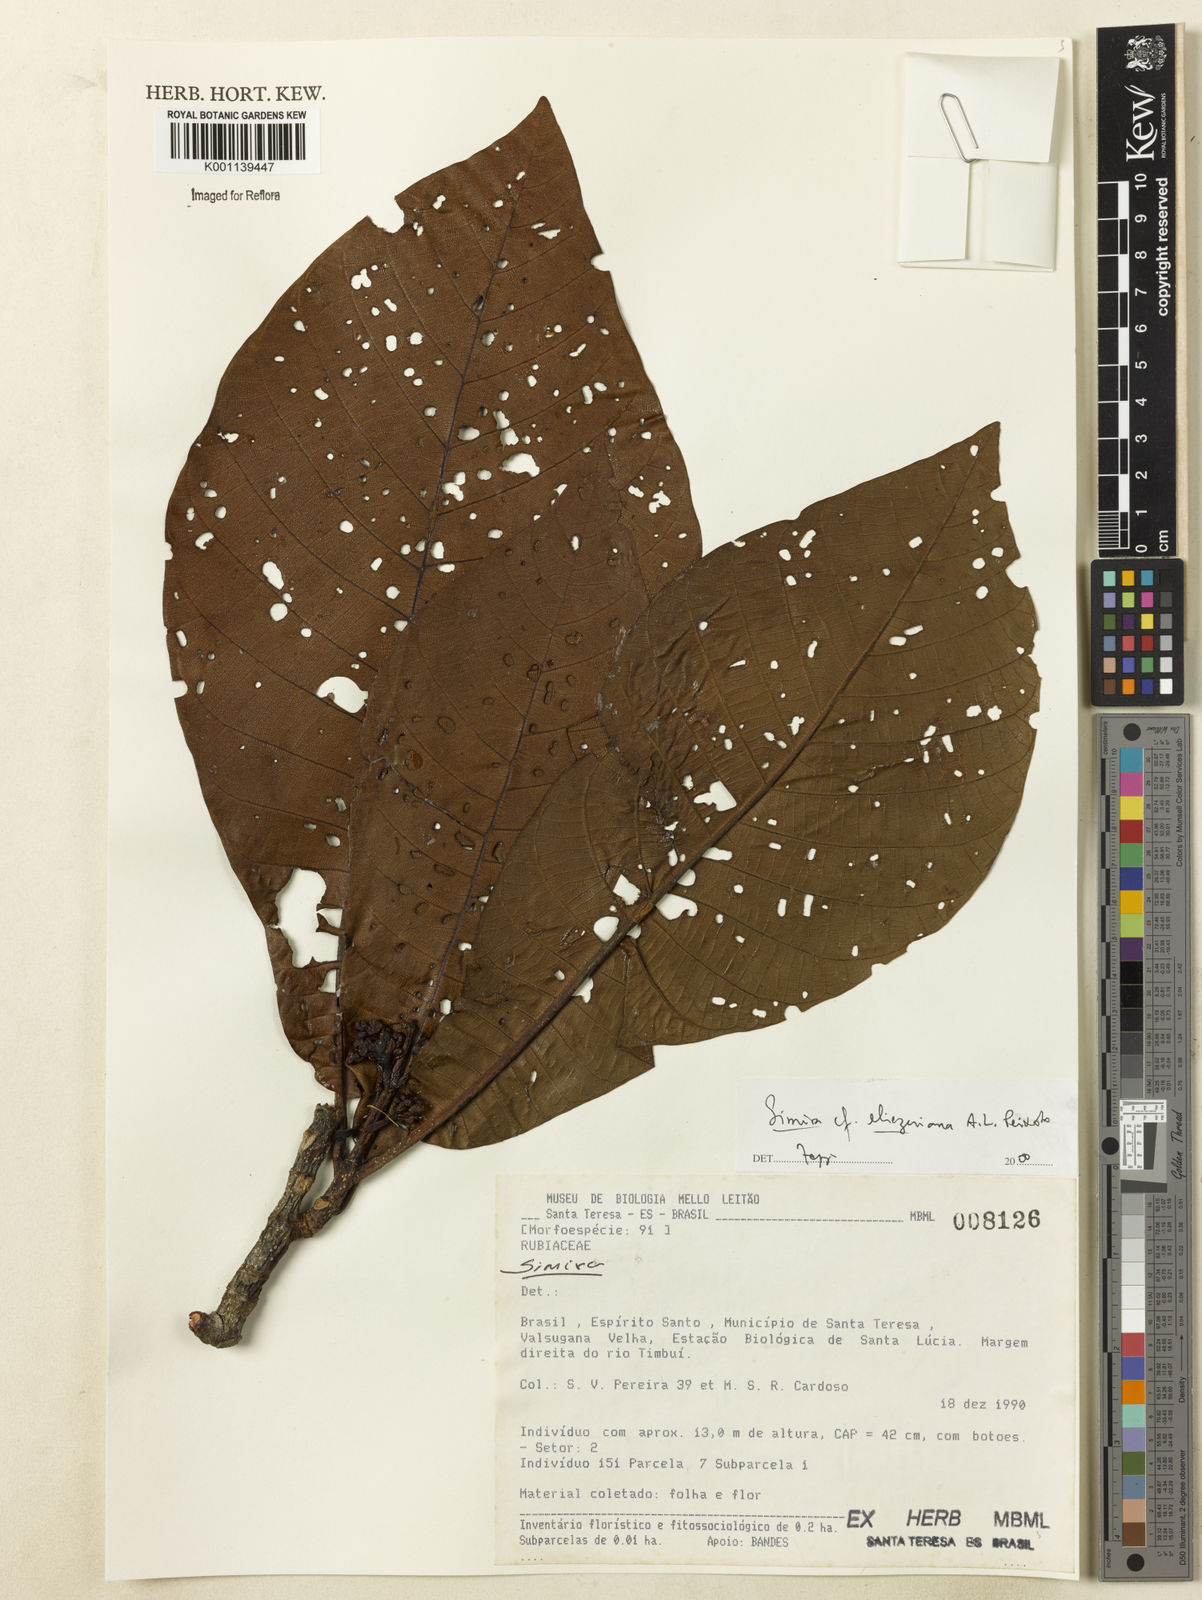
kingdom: Plantae
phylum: Tracheophyta
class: Magnoliopsida
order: Gentianales
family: Rubiaceae
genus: Simira
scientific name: Simira eliezeriana
